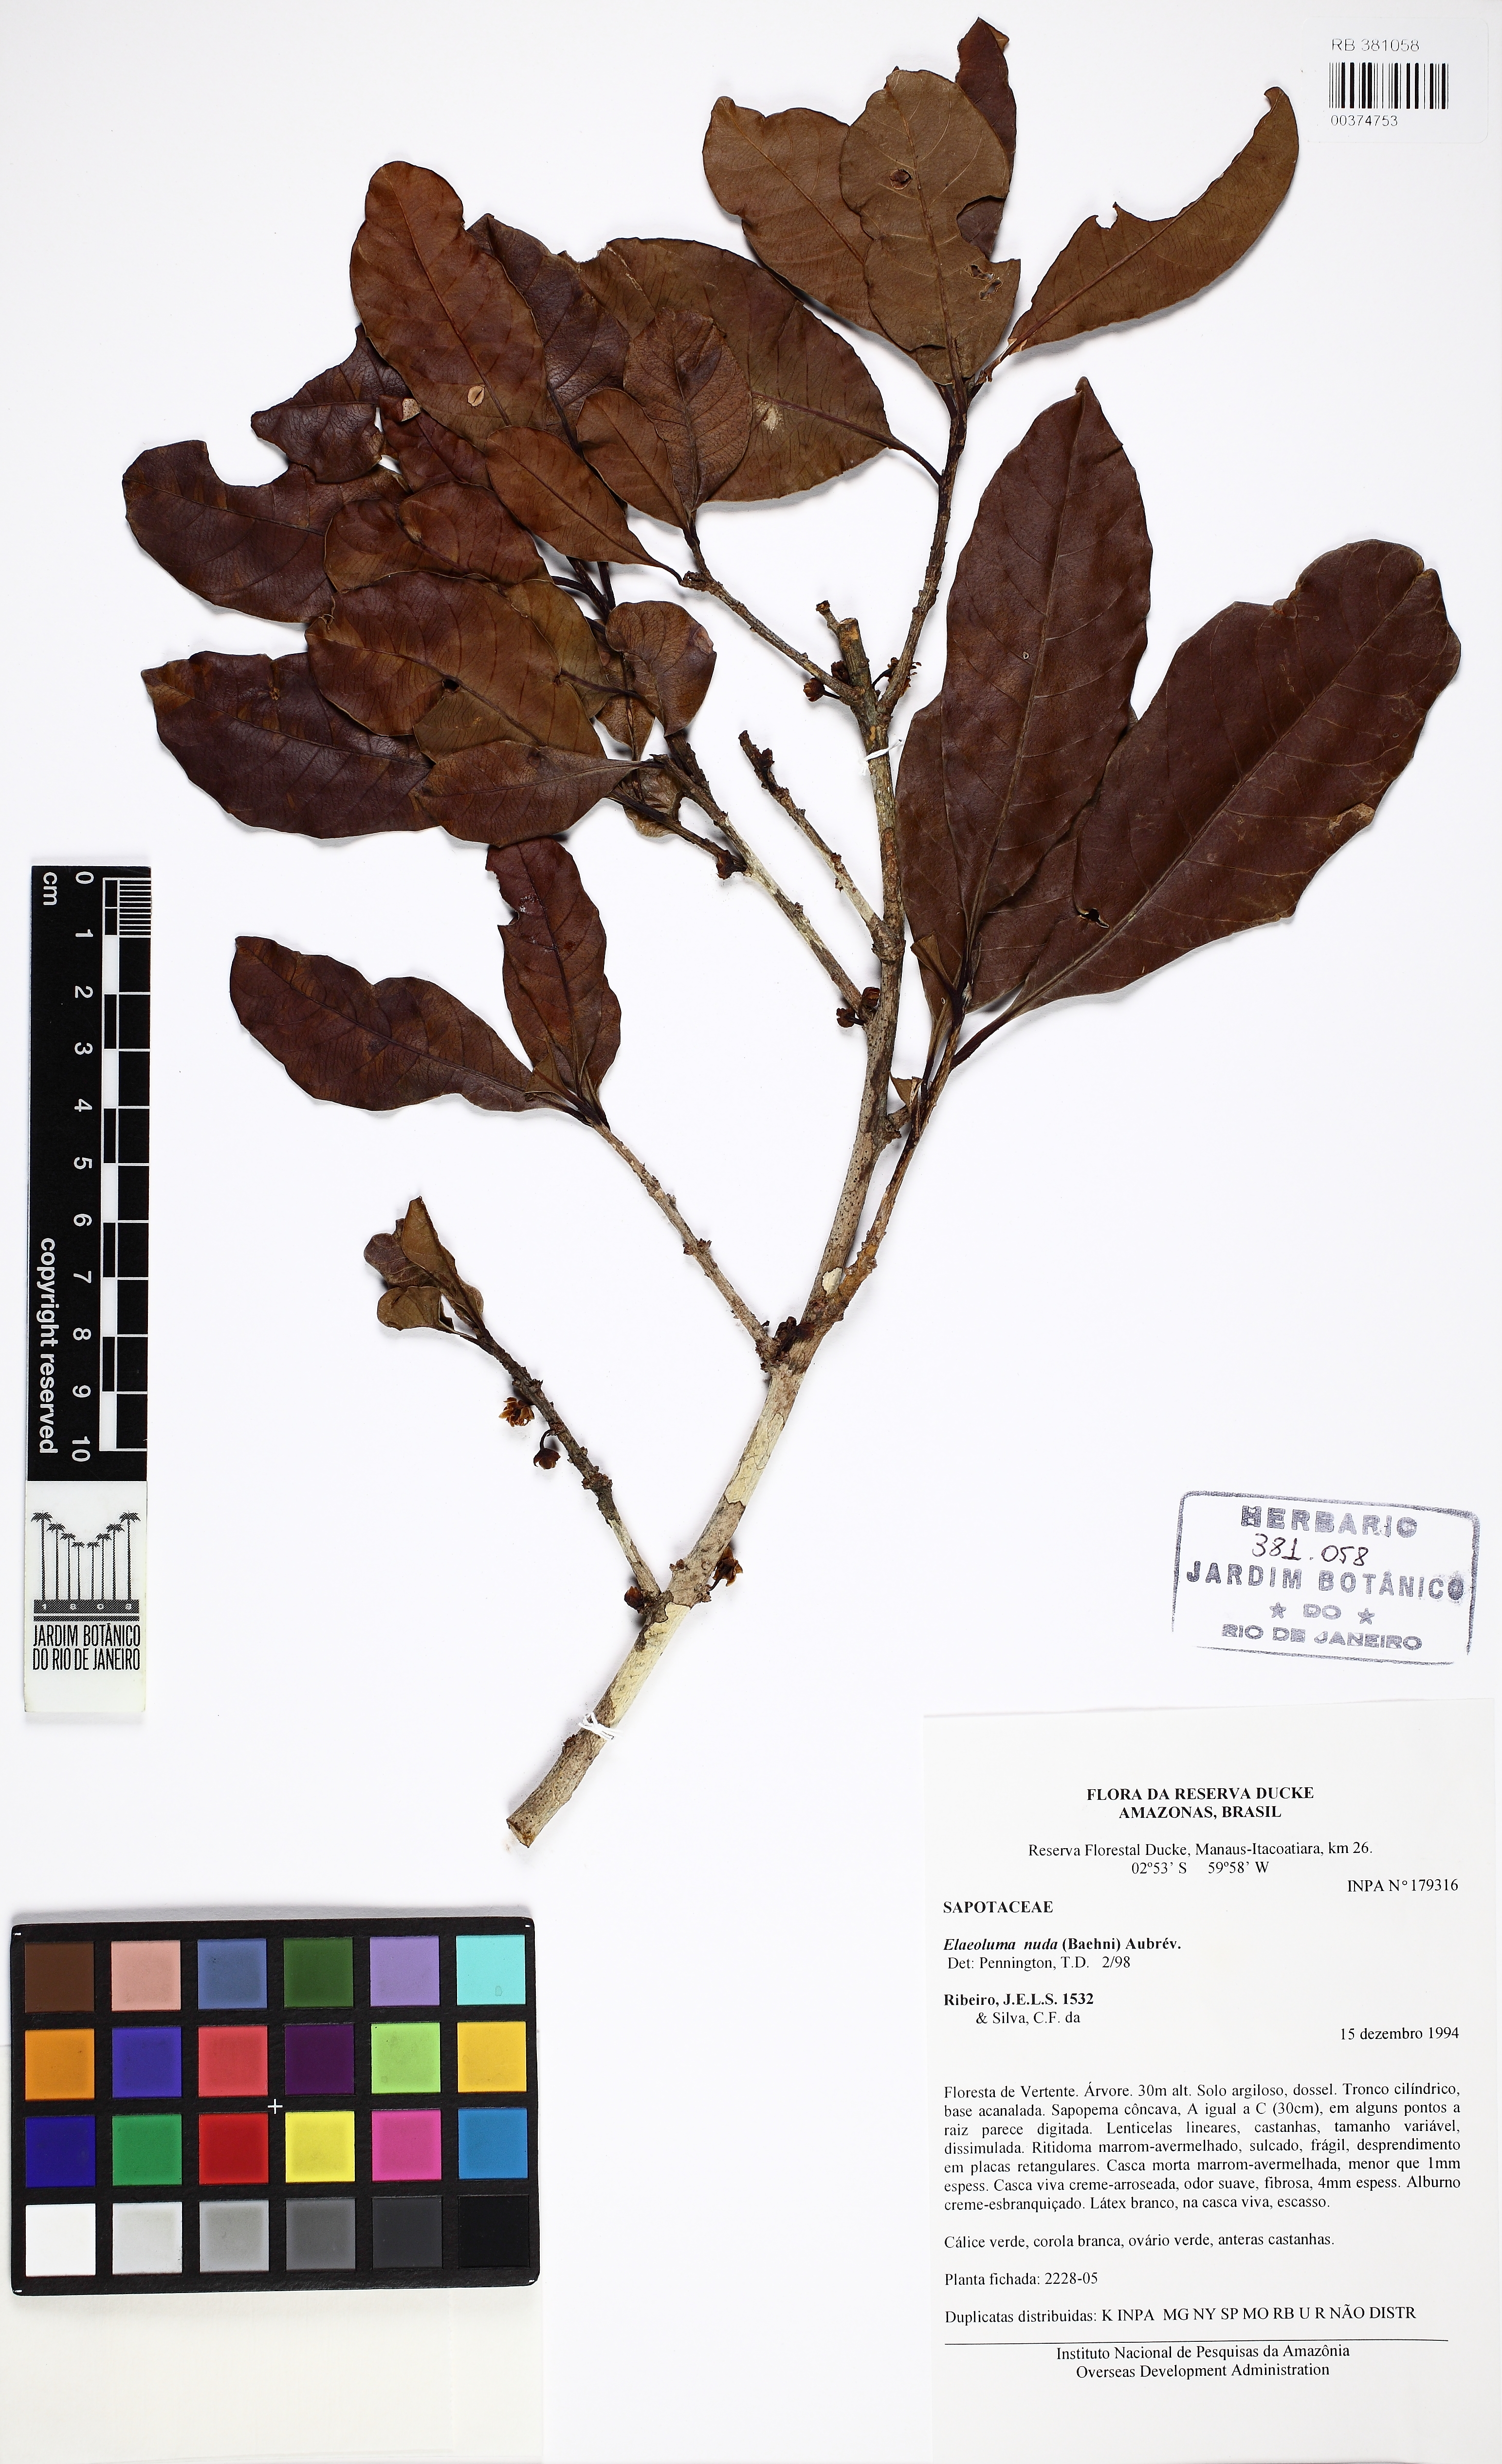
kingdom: Plantae
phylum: Tracheophyta
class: Magnoliopsida
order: Ericales
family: Sapotaceae
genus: Elaeoluma
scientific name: Elaeoluma nuda
